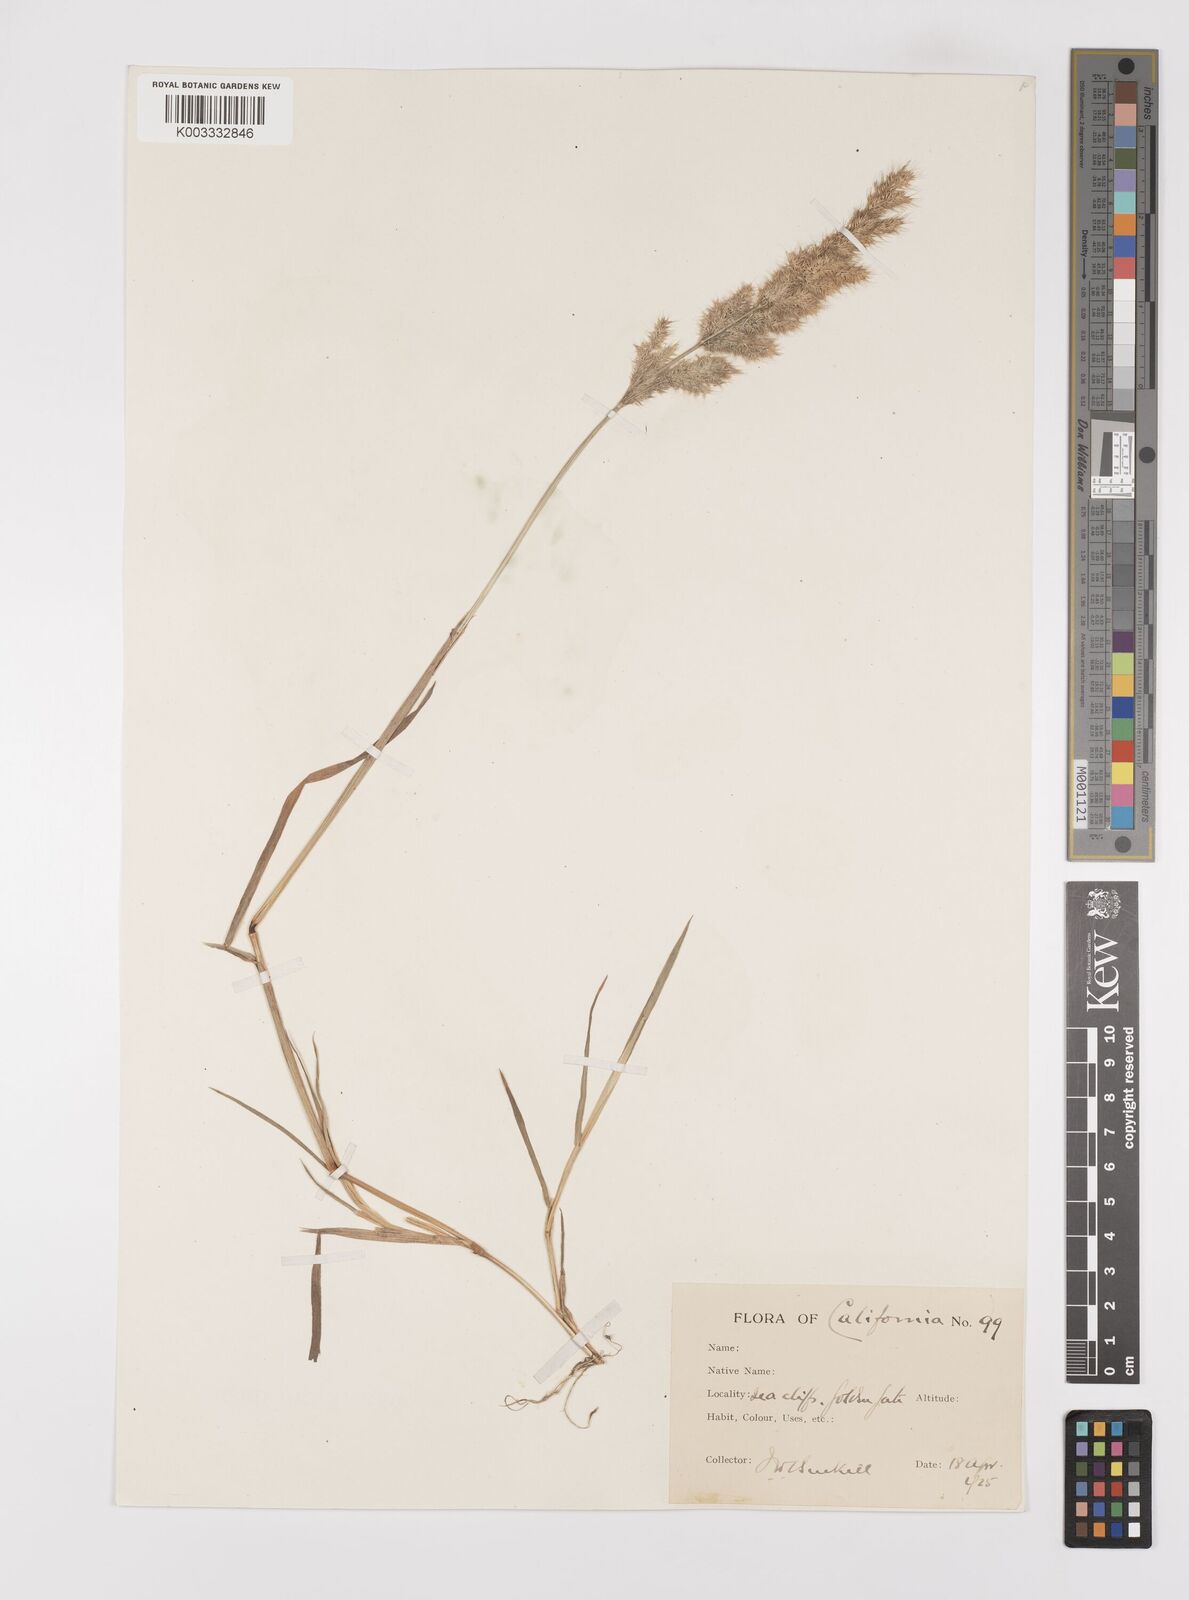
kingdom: Plantae
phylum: Tracheophyta
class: Liliopsida
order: Poales
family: Poaceae
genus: Polypogon
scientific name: Polypogon interruptus
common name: Ditch polypogon
